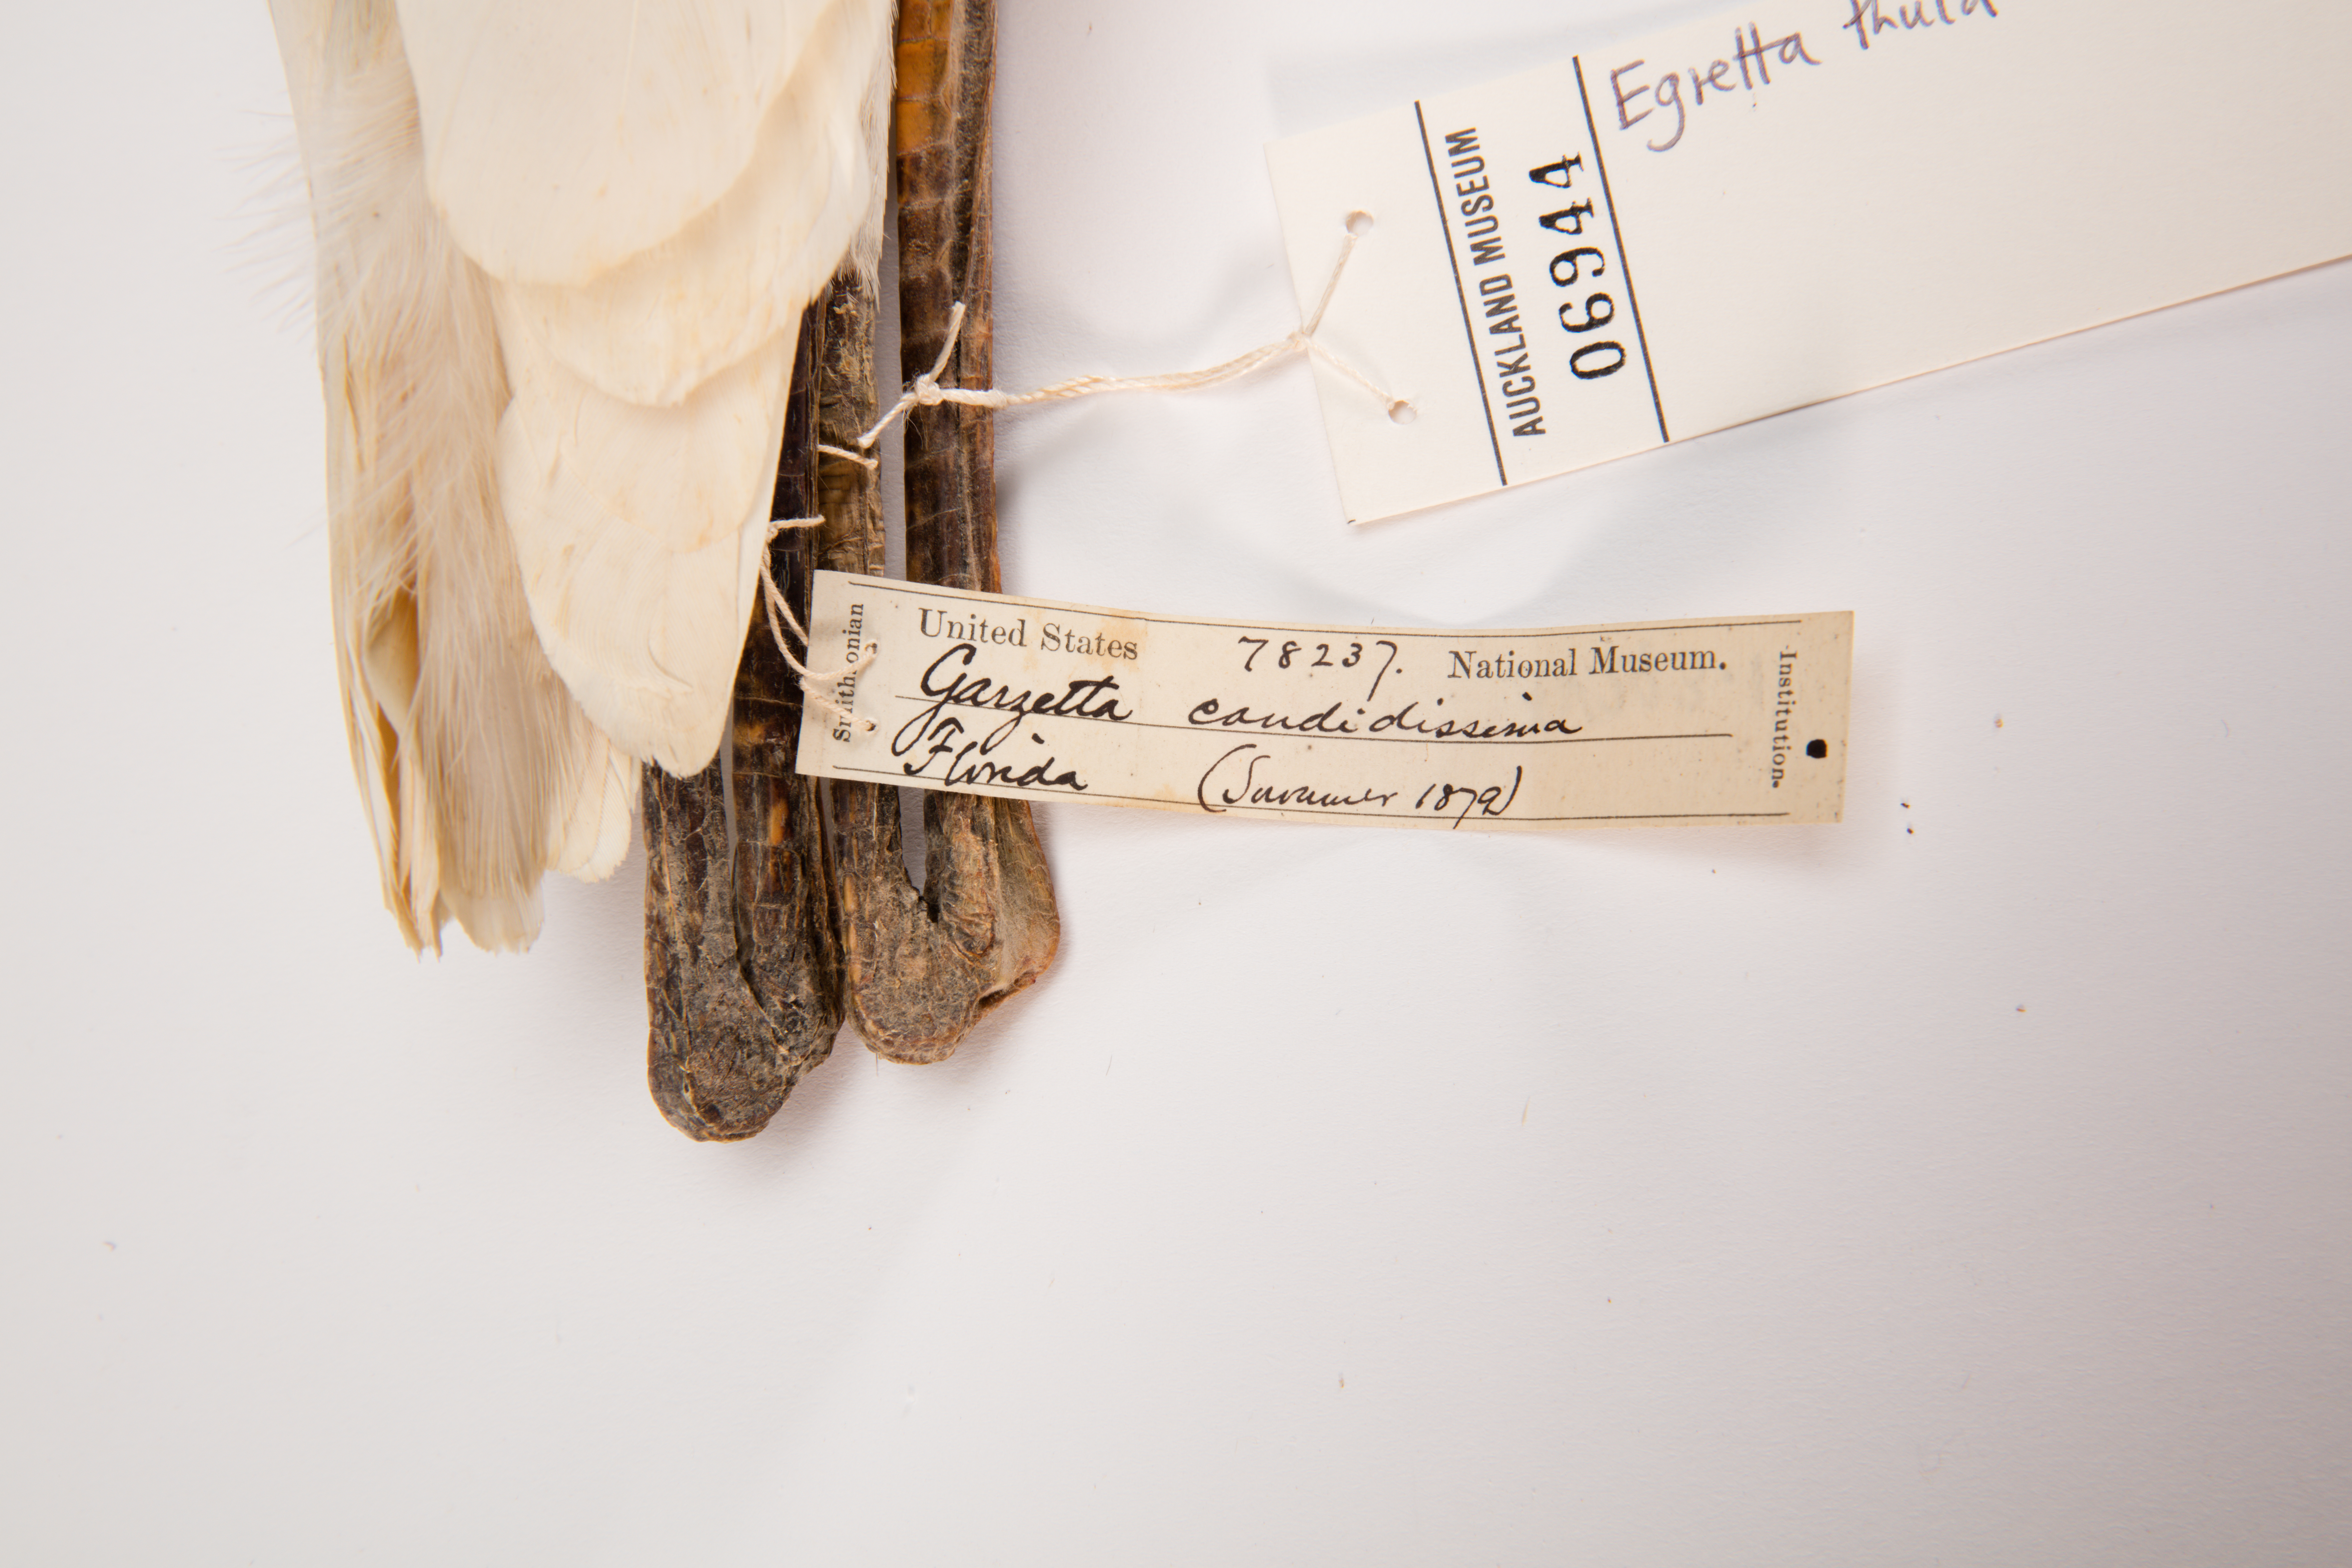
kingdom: Animalia
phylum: Chordata
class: Aves
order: Pelecaniformes
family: Ardeidae
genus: Egretta
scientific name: Egretta thula
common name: Snowy egret
